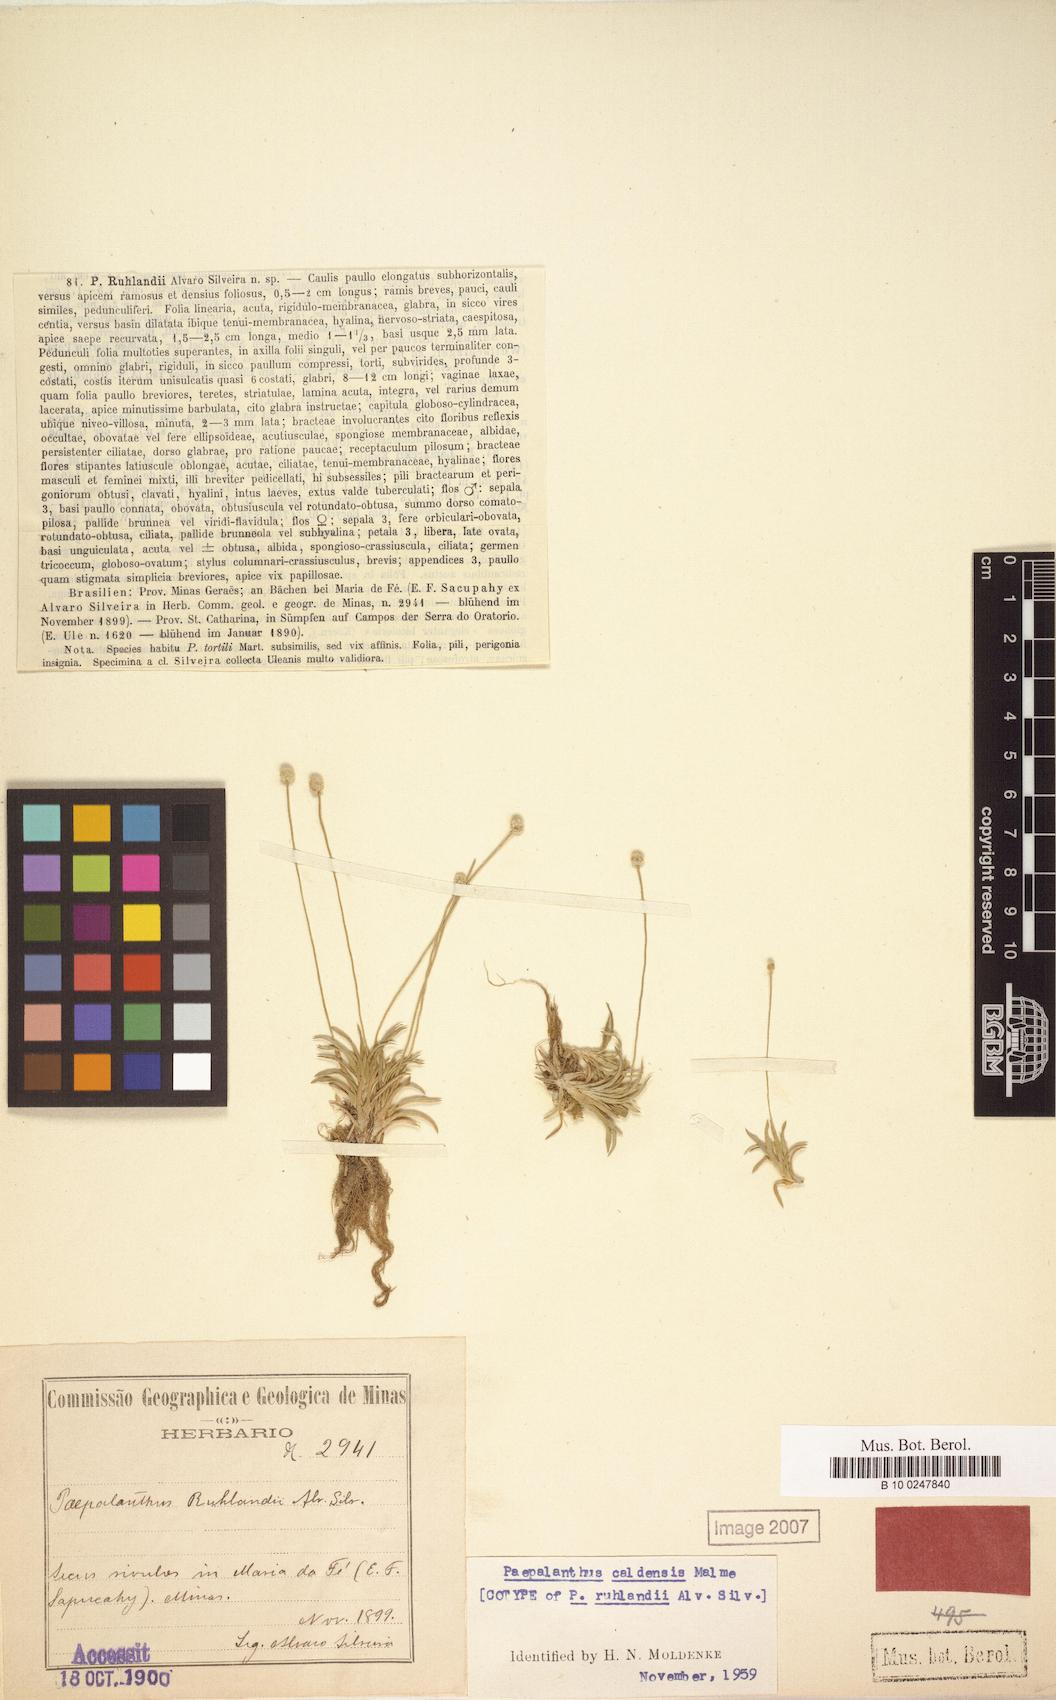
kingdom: Plantae
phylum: Tracheophyta
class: Liliopsida
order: Poales
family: Eriocaulaceae
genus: Paepalanthus
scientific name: Paepalanthus caldensis
